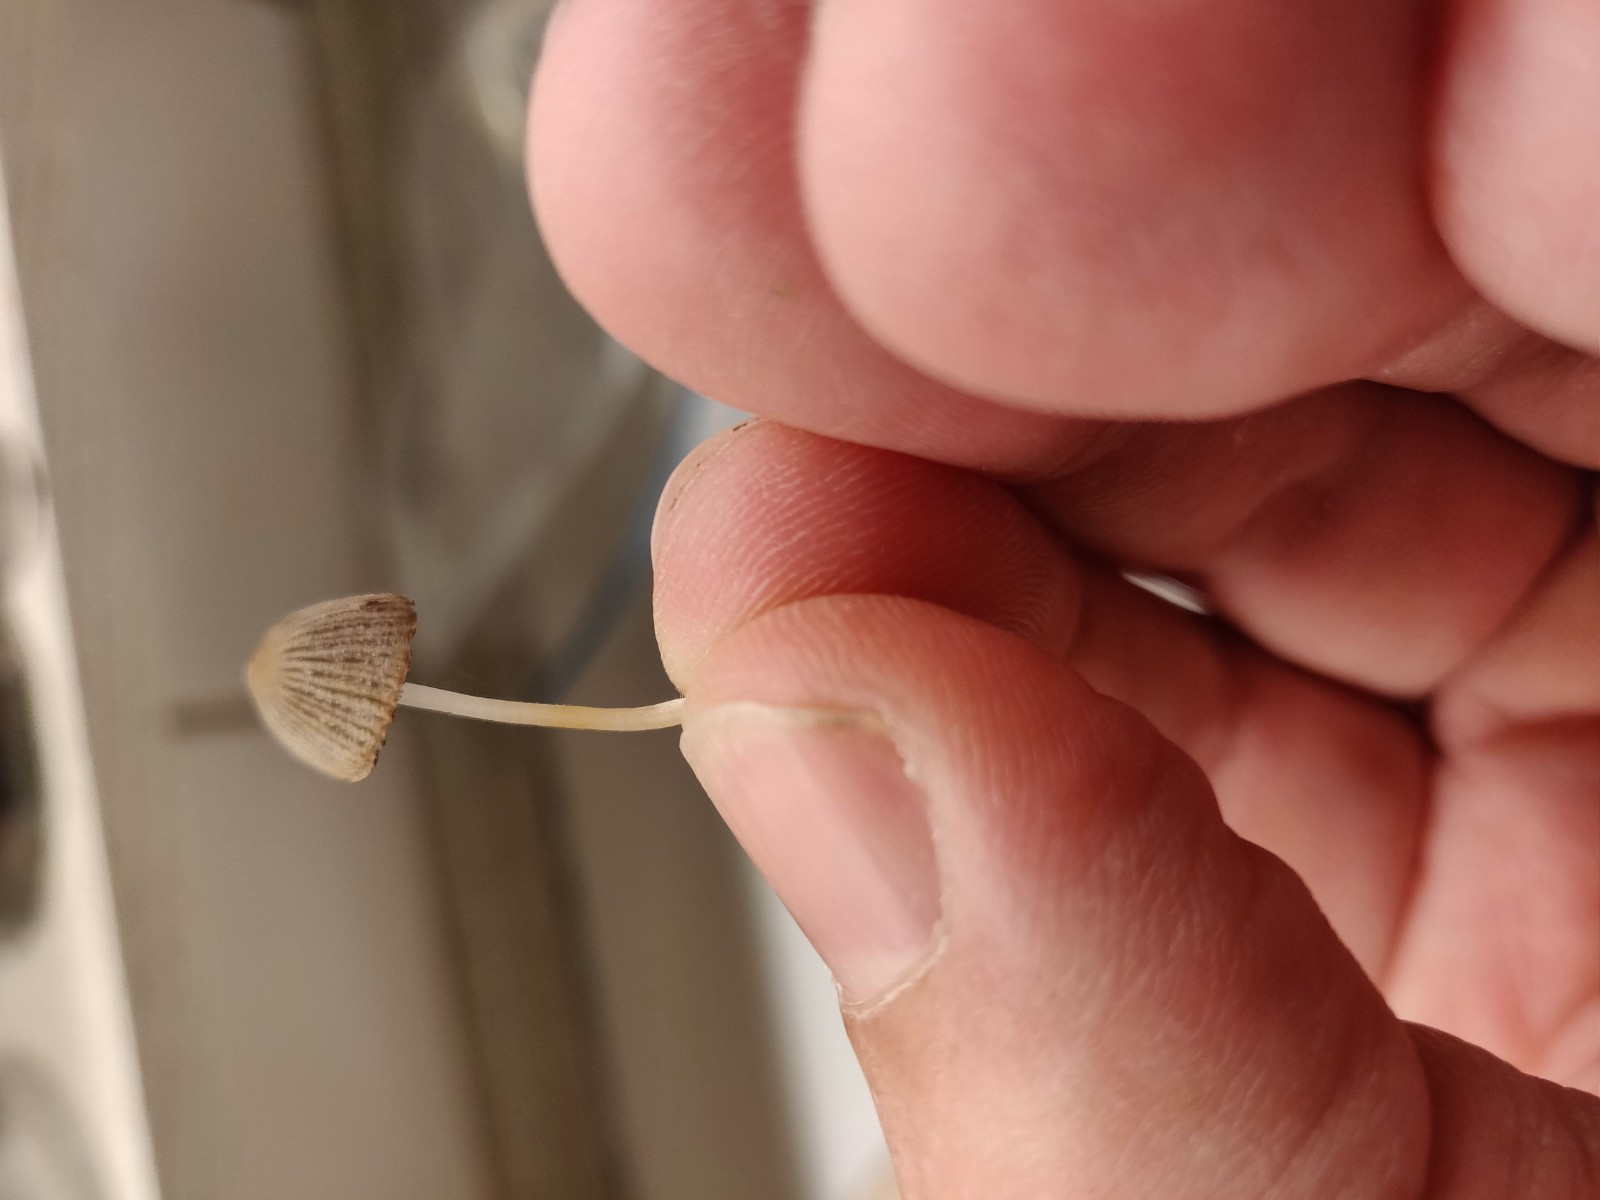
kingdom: Fungi
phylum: Basidiomycota
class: Agaricomycetes
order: Agaricales
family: Psathyrellaceae
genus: Coprinellus
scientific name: Coprinellus disseminatus
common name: bredsået blækhat
